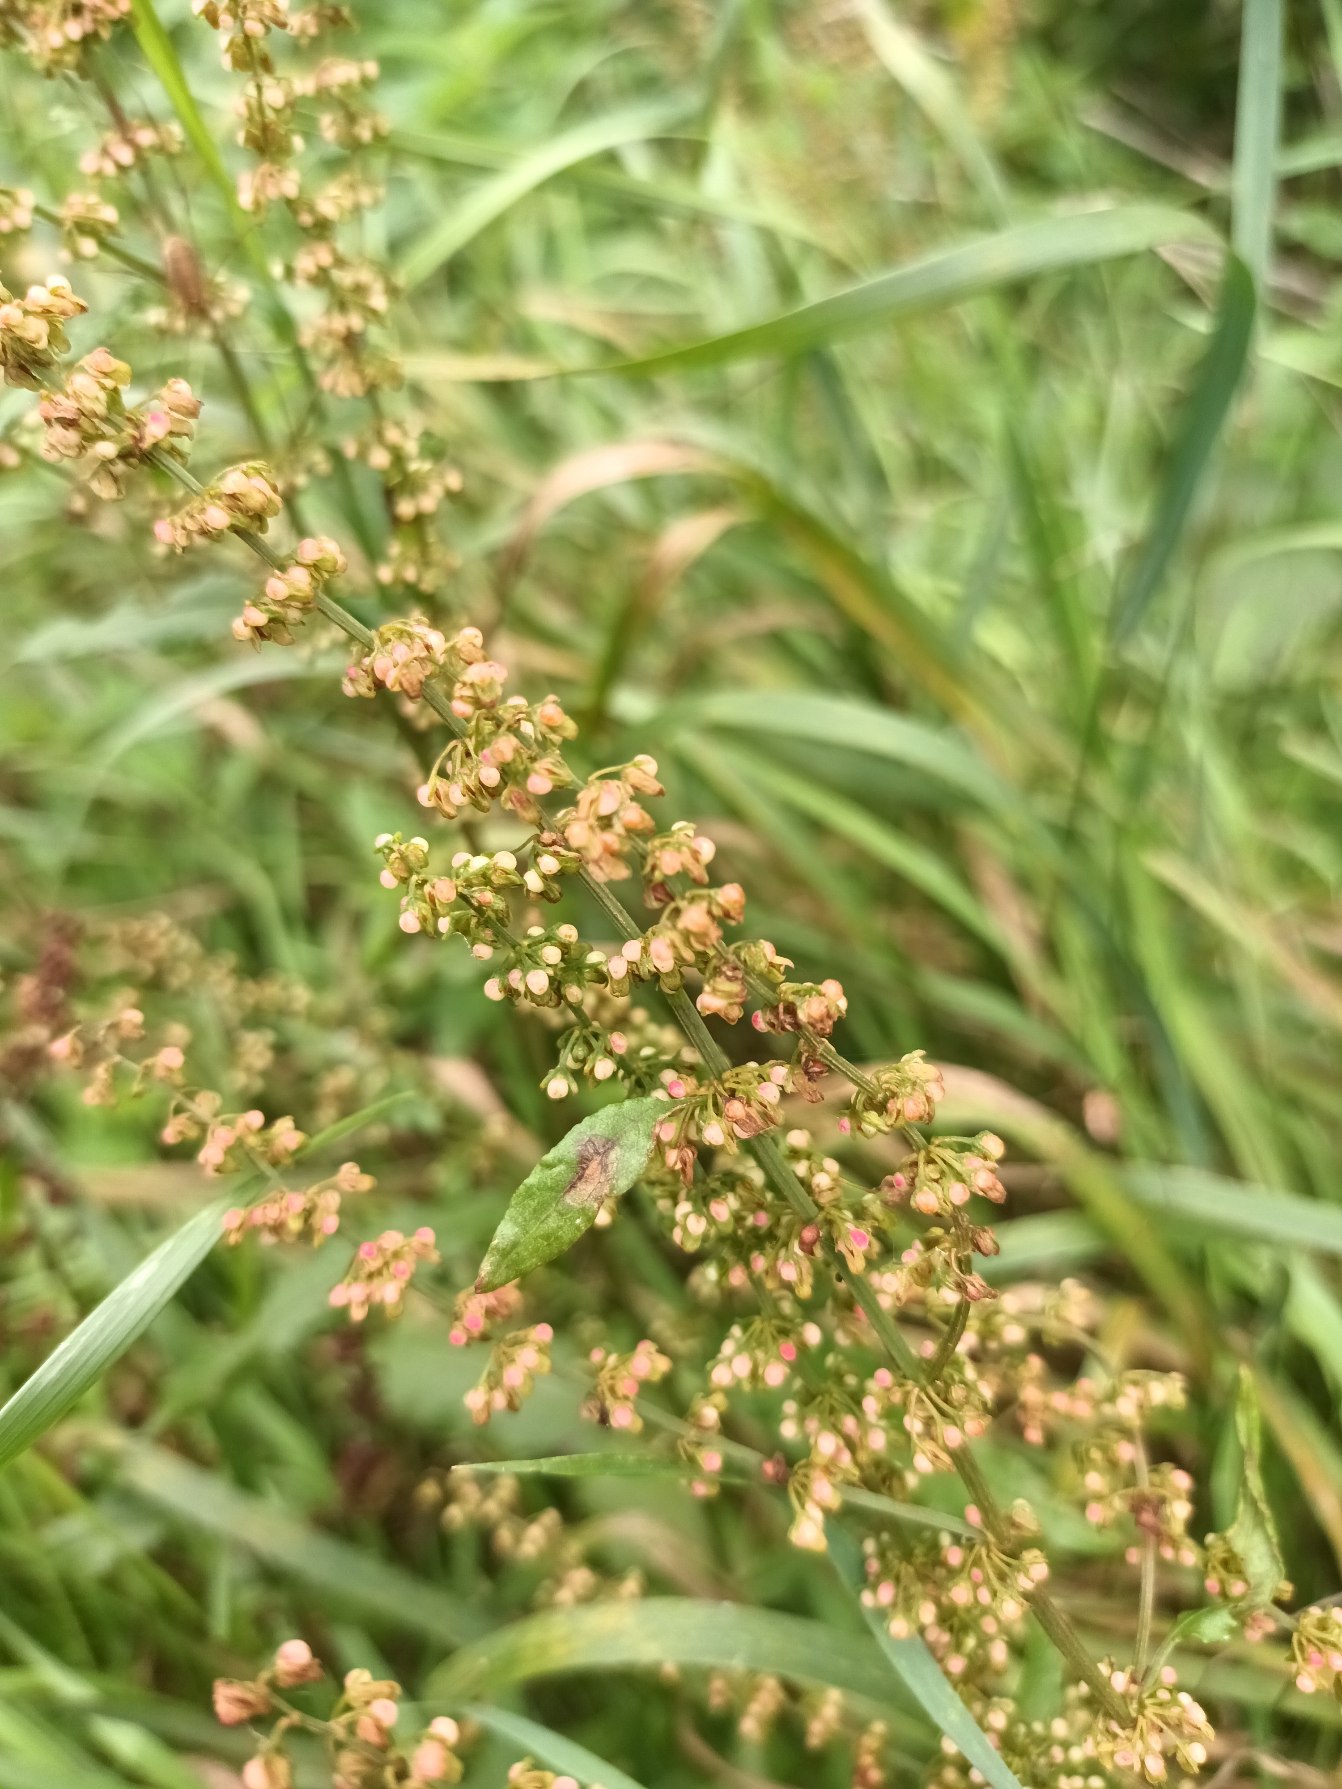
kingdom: Plantae
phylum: Tracheophyta
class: Magnoliopsida
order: Caryophyllales
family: Polygonaceae
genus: Rumex
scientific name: Rumex sanguineus
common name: Skov-skræppe
